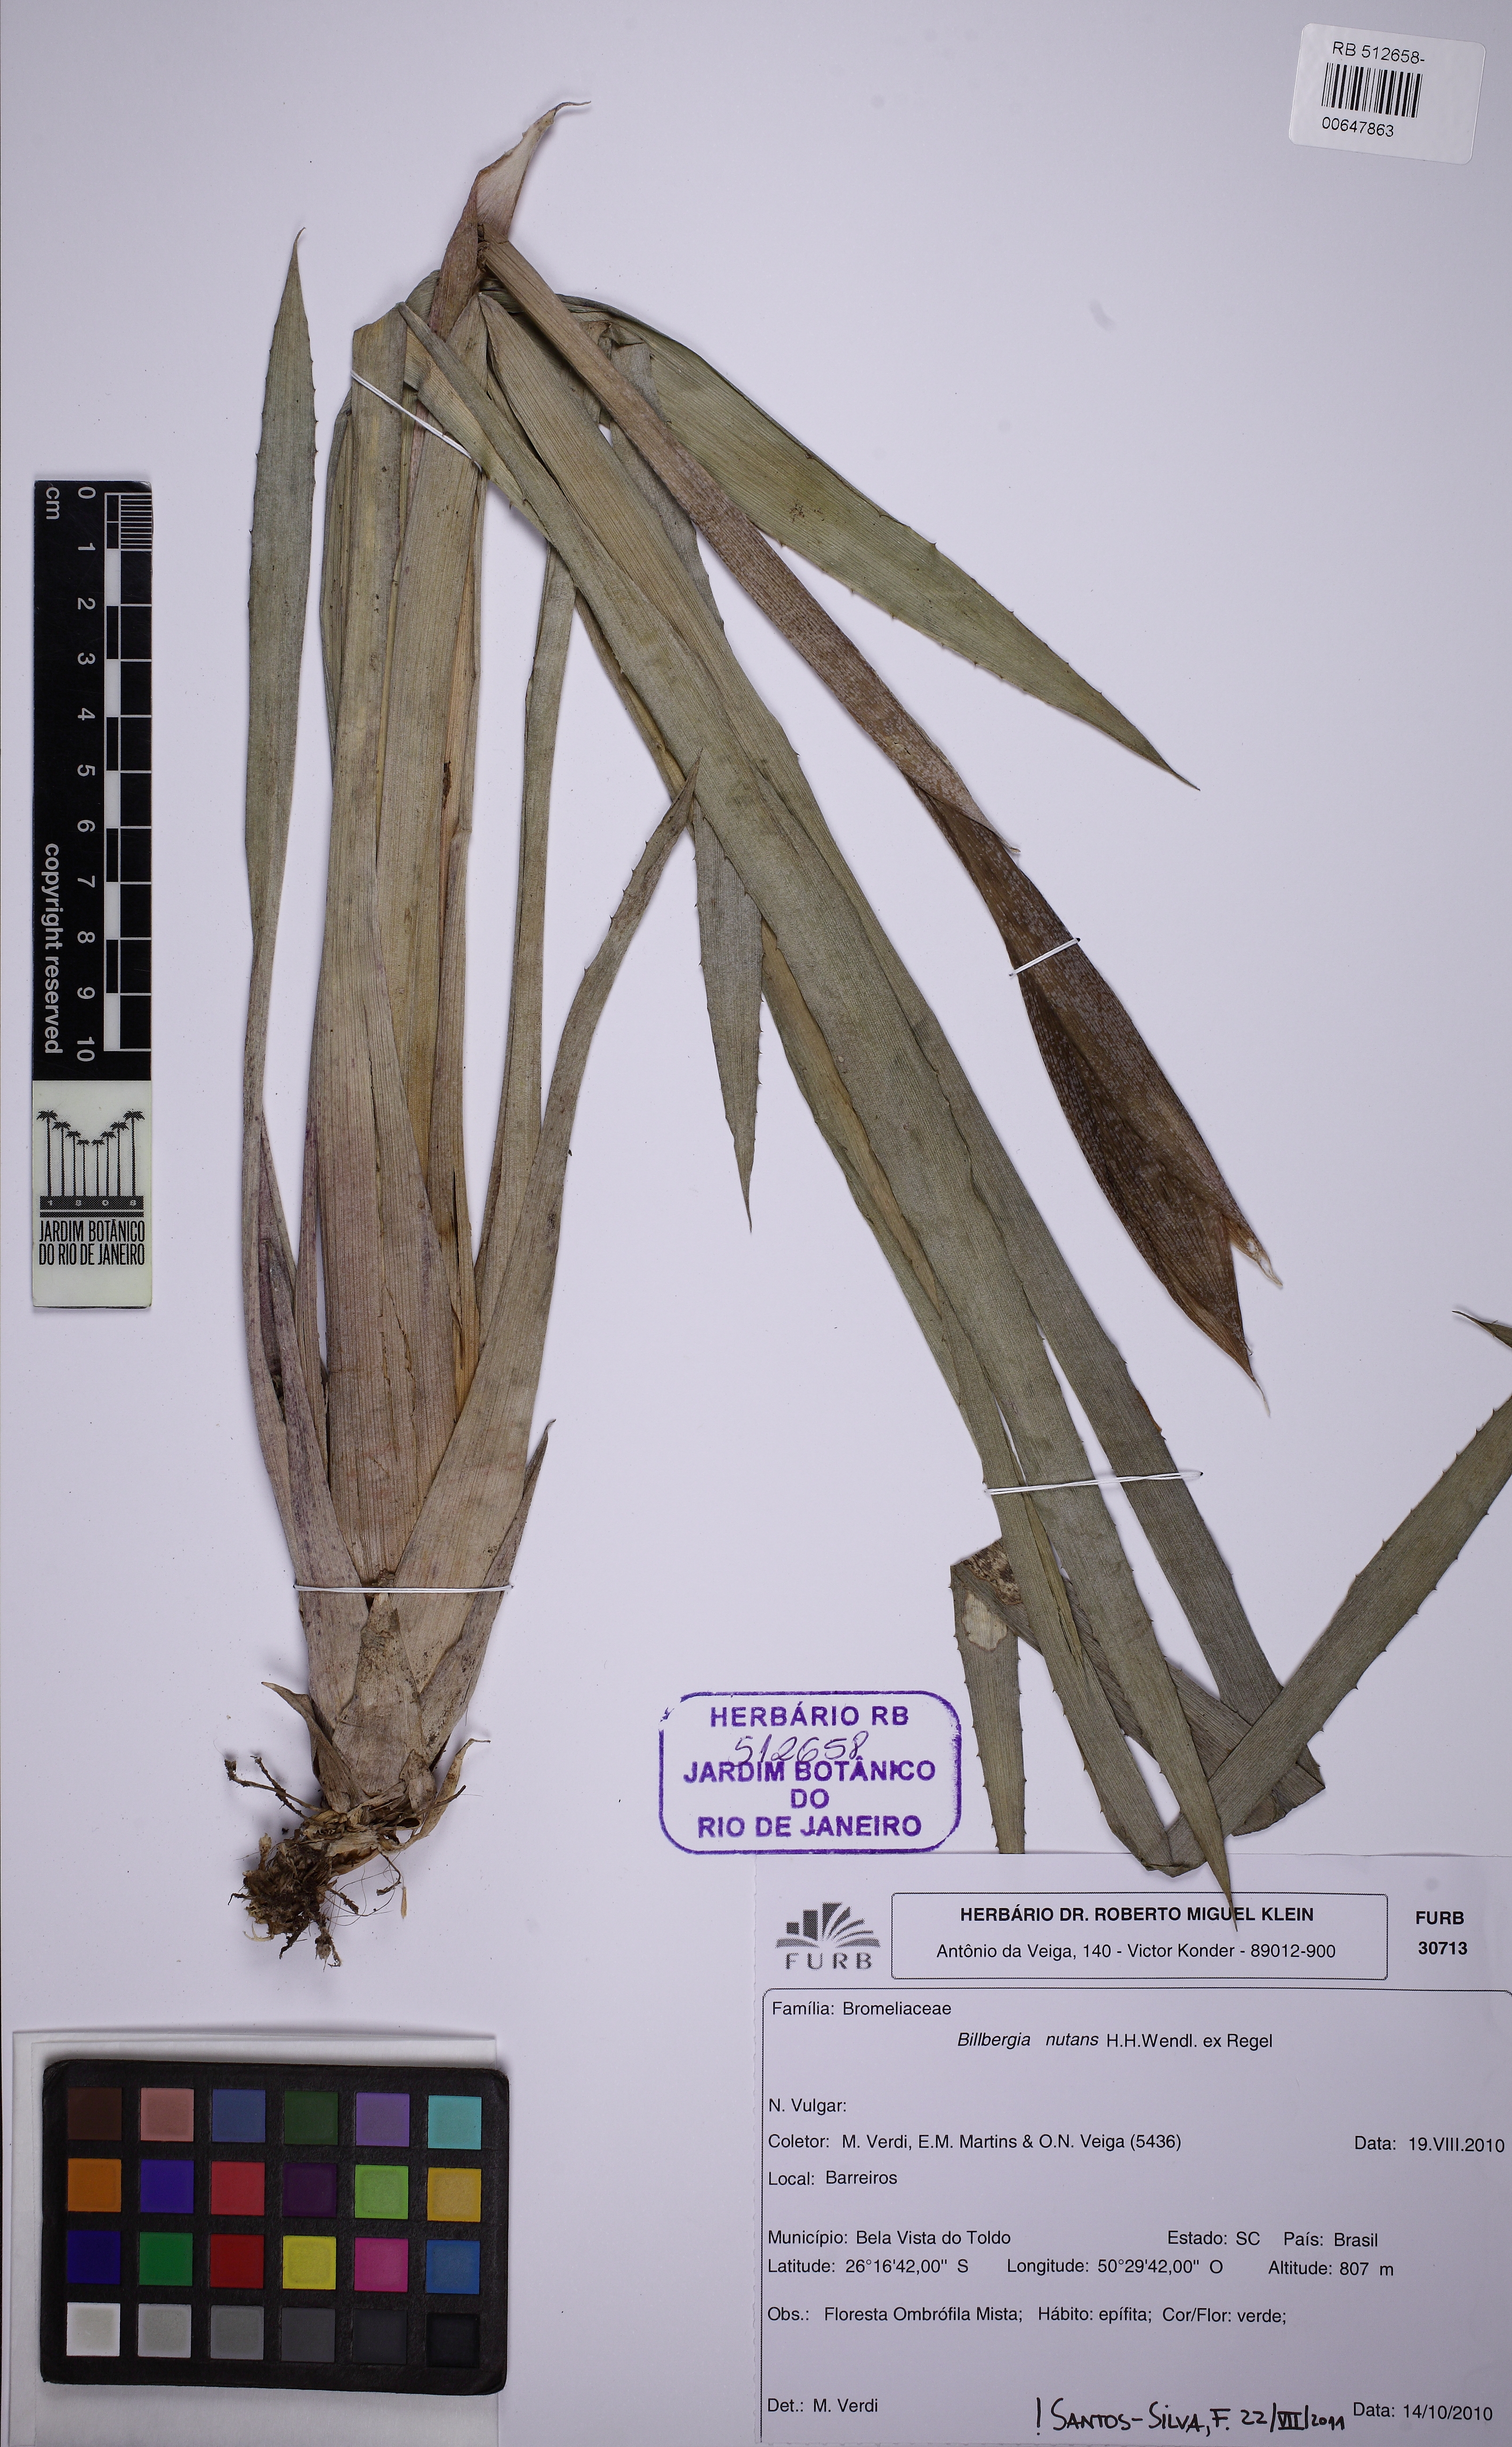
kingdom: Plantae
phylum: Tracheophyta
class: Liliopsida
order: Poales
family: Bromeliaceae
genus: Billbergia
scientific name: Billbergia nutans
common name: Friendship-plant
